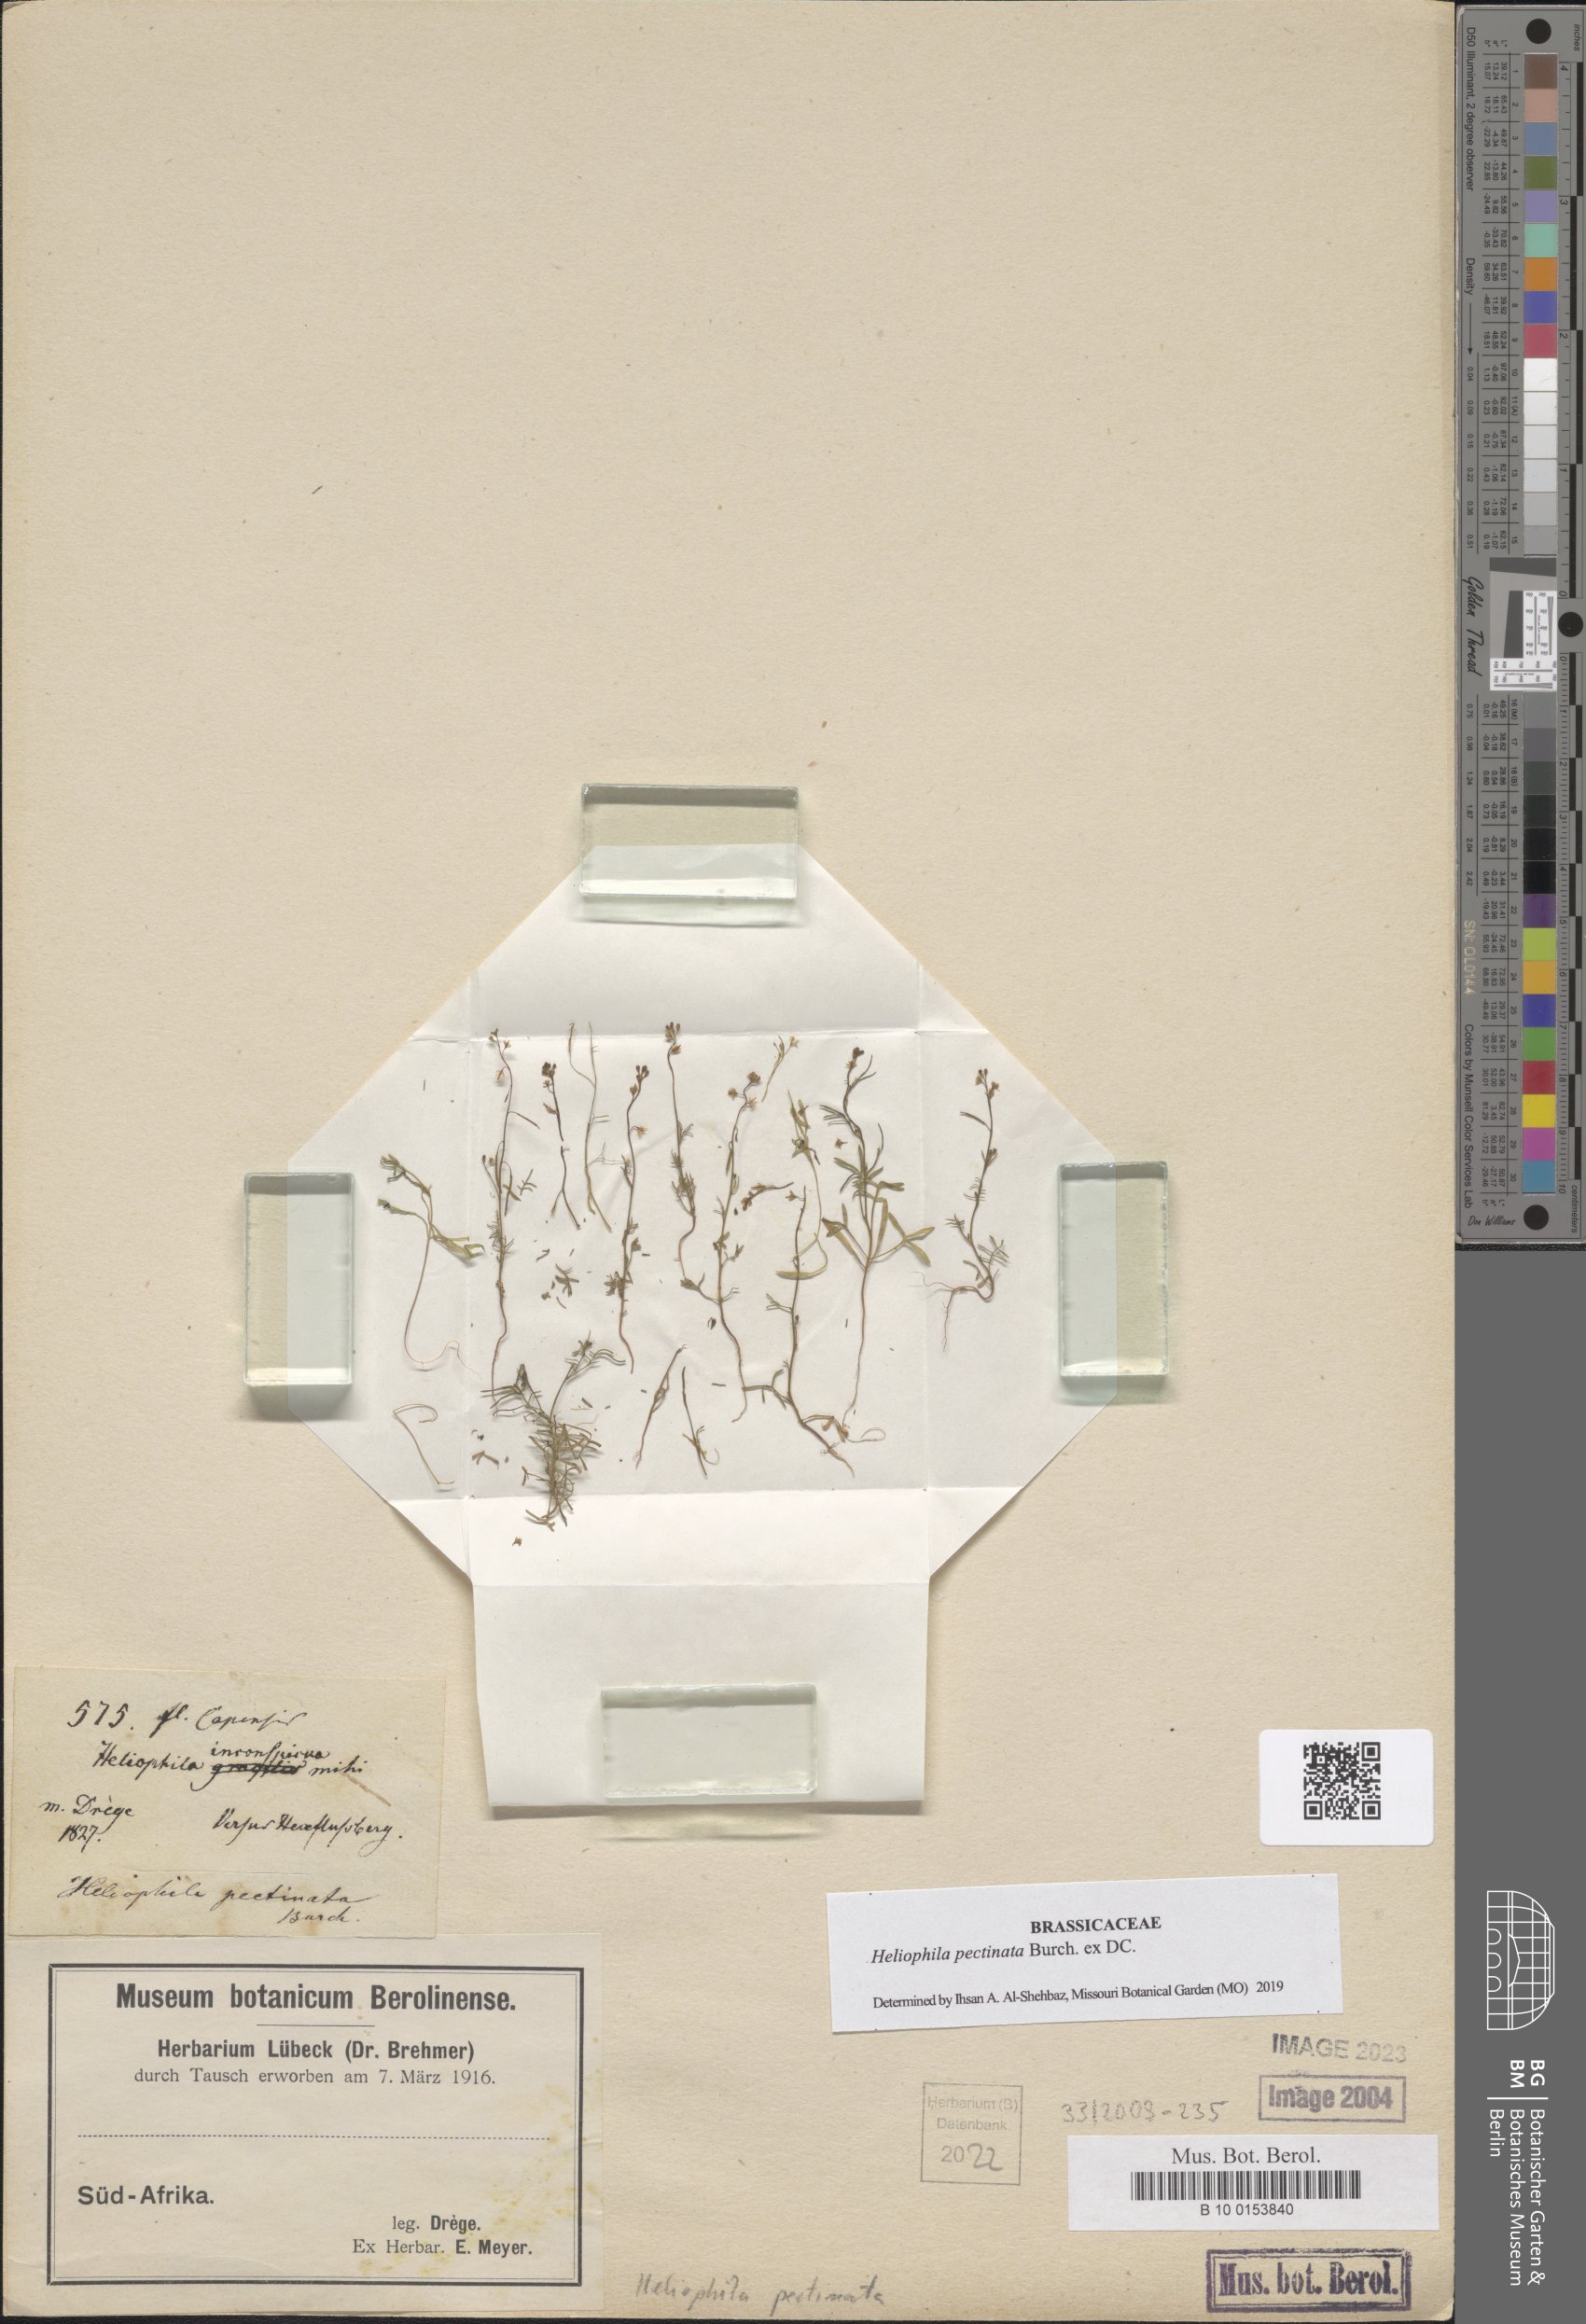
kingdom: Plantae
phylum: Tracheophyta
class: Magnoliopsida
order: Brassicales
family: Brassicaceae
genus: Heliophila
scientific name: Heliophila pectinata
